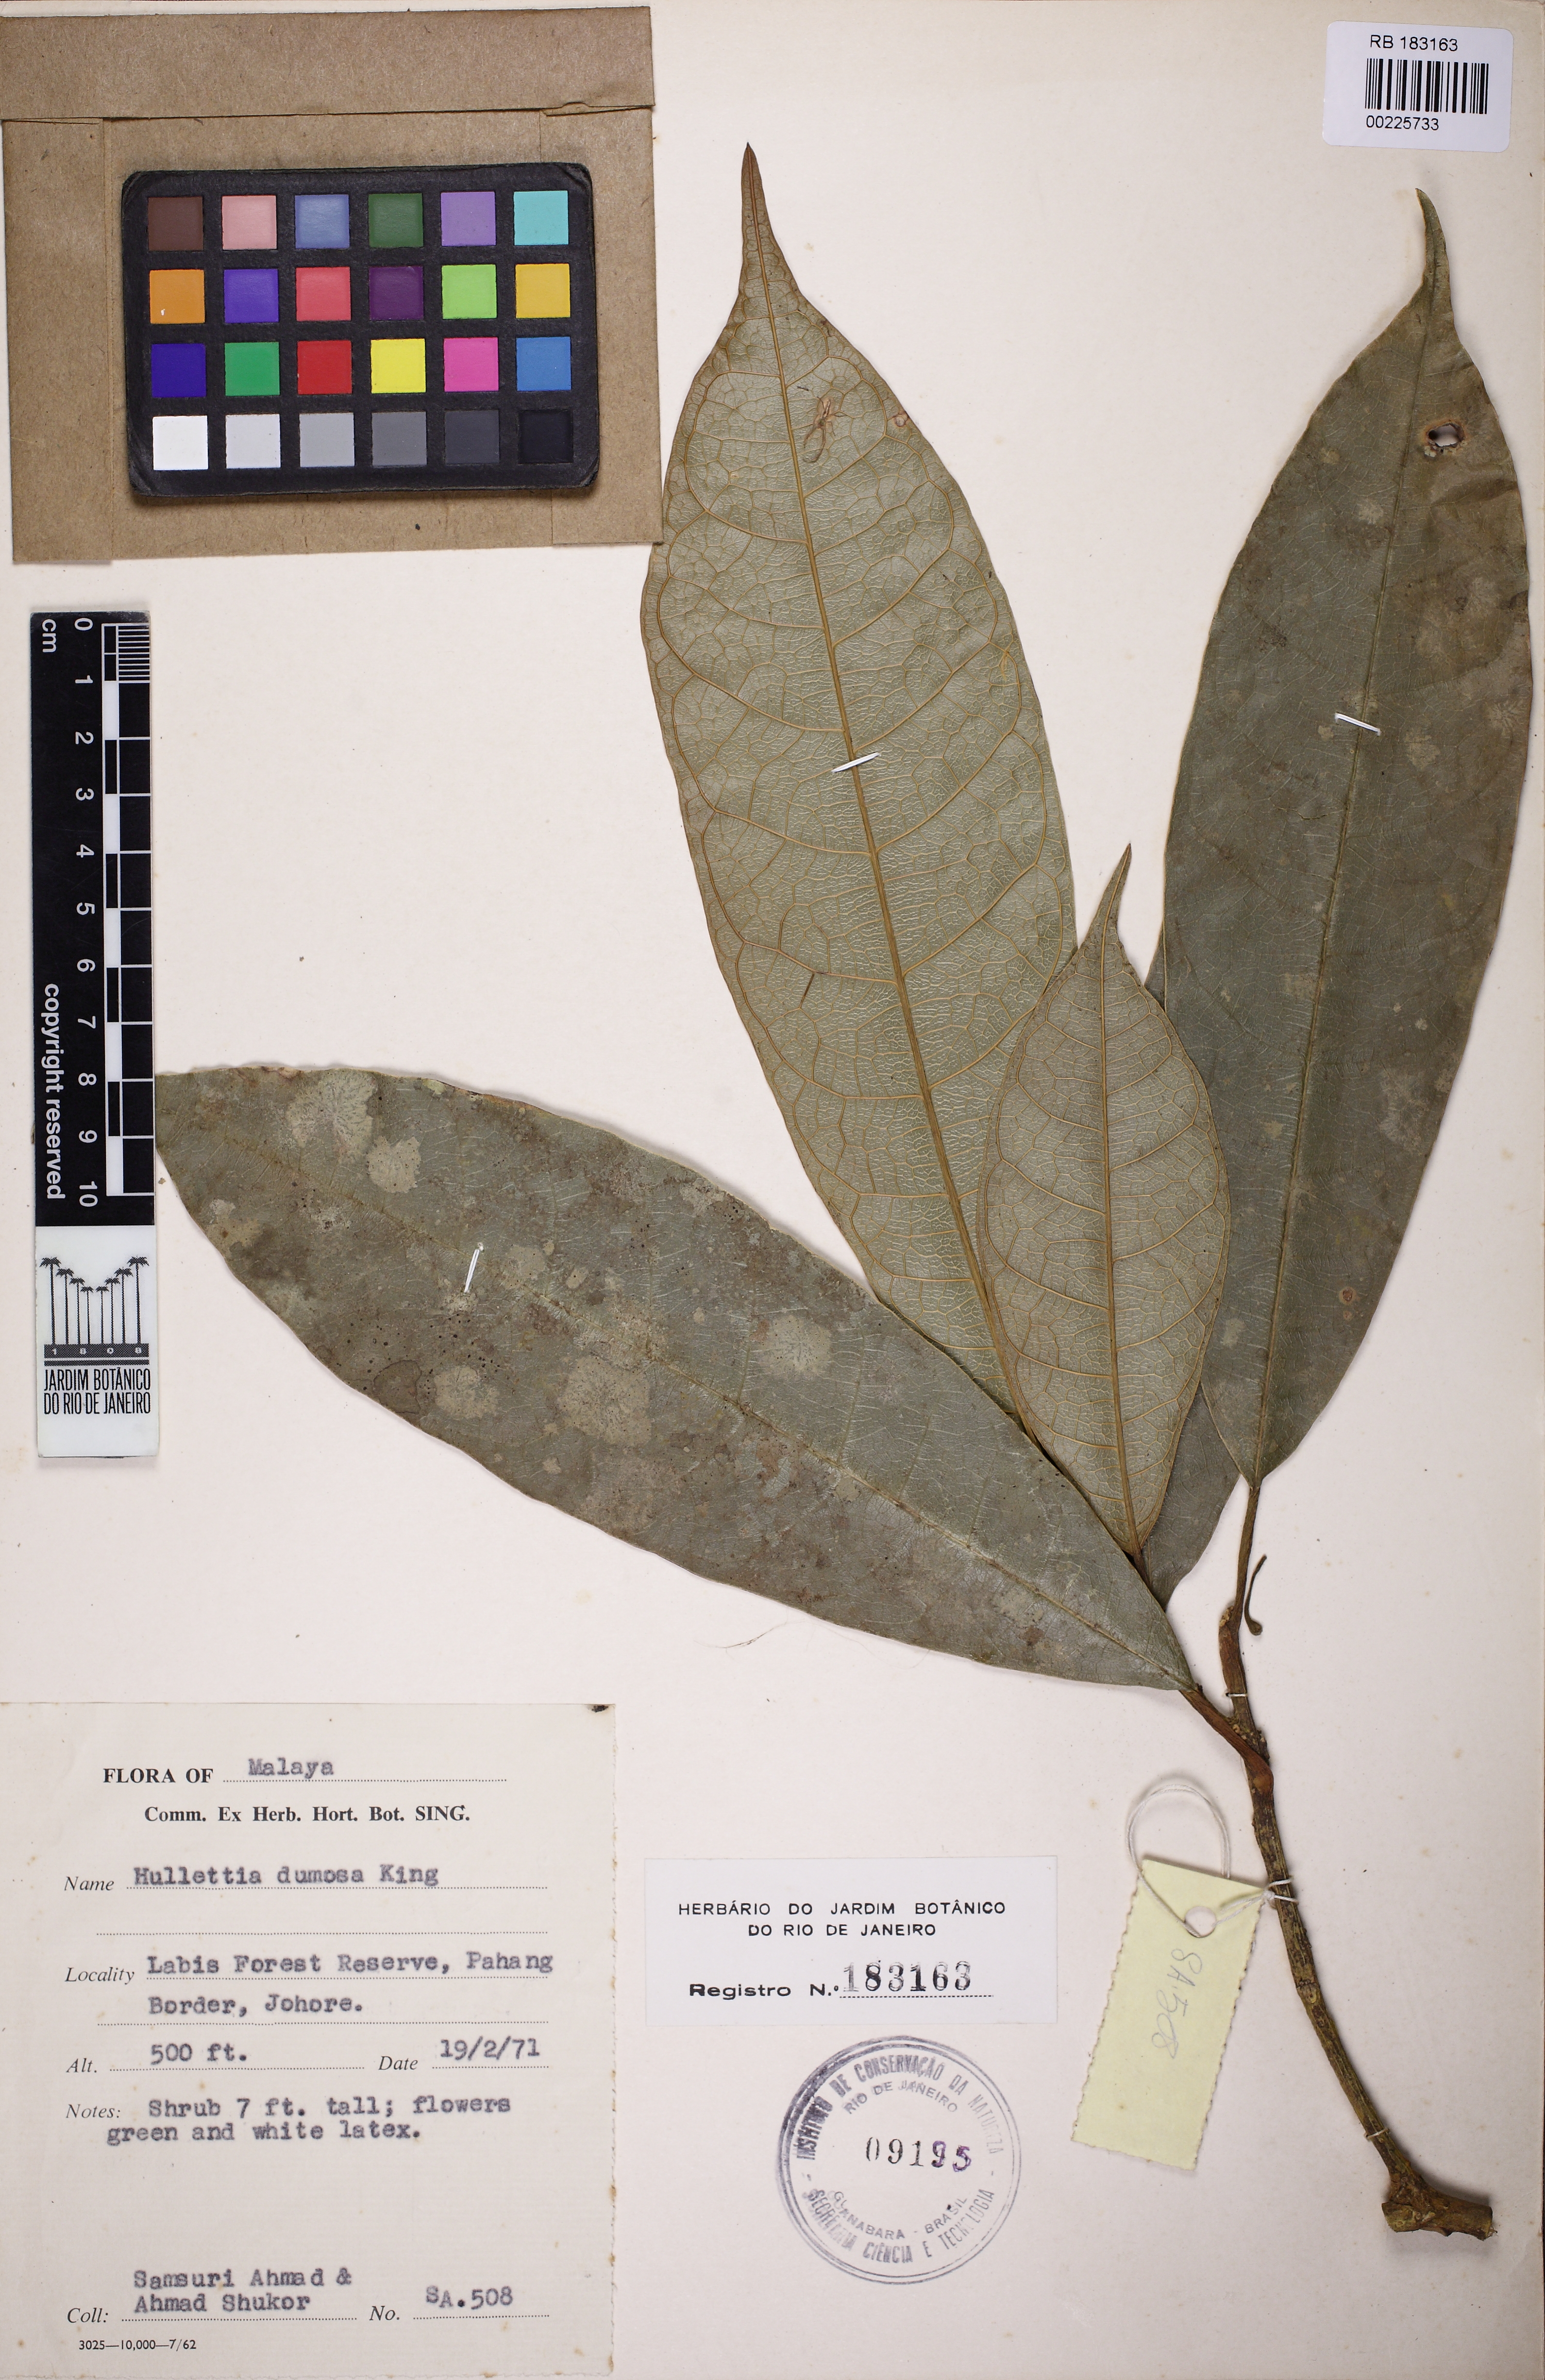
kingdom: Plantae
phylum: Tracheophyta
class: Magnoliopsida
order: Rosales
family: Moraceae
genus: Hullettia
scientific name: Hullettia dumosa
